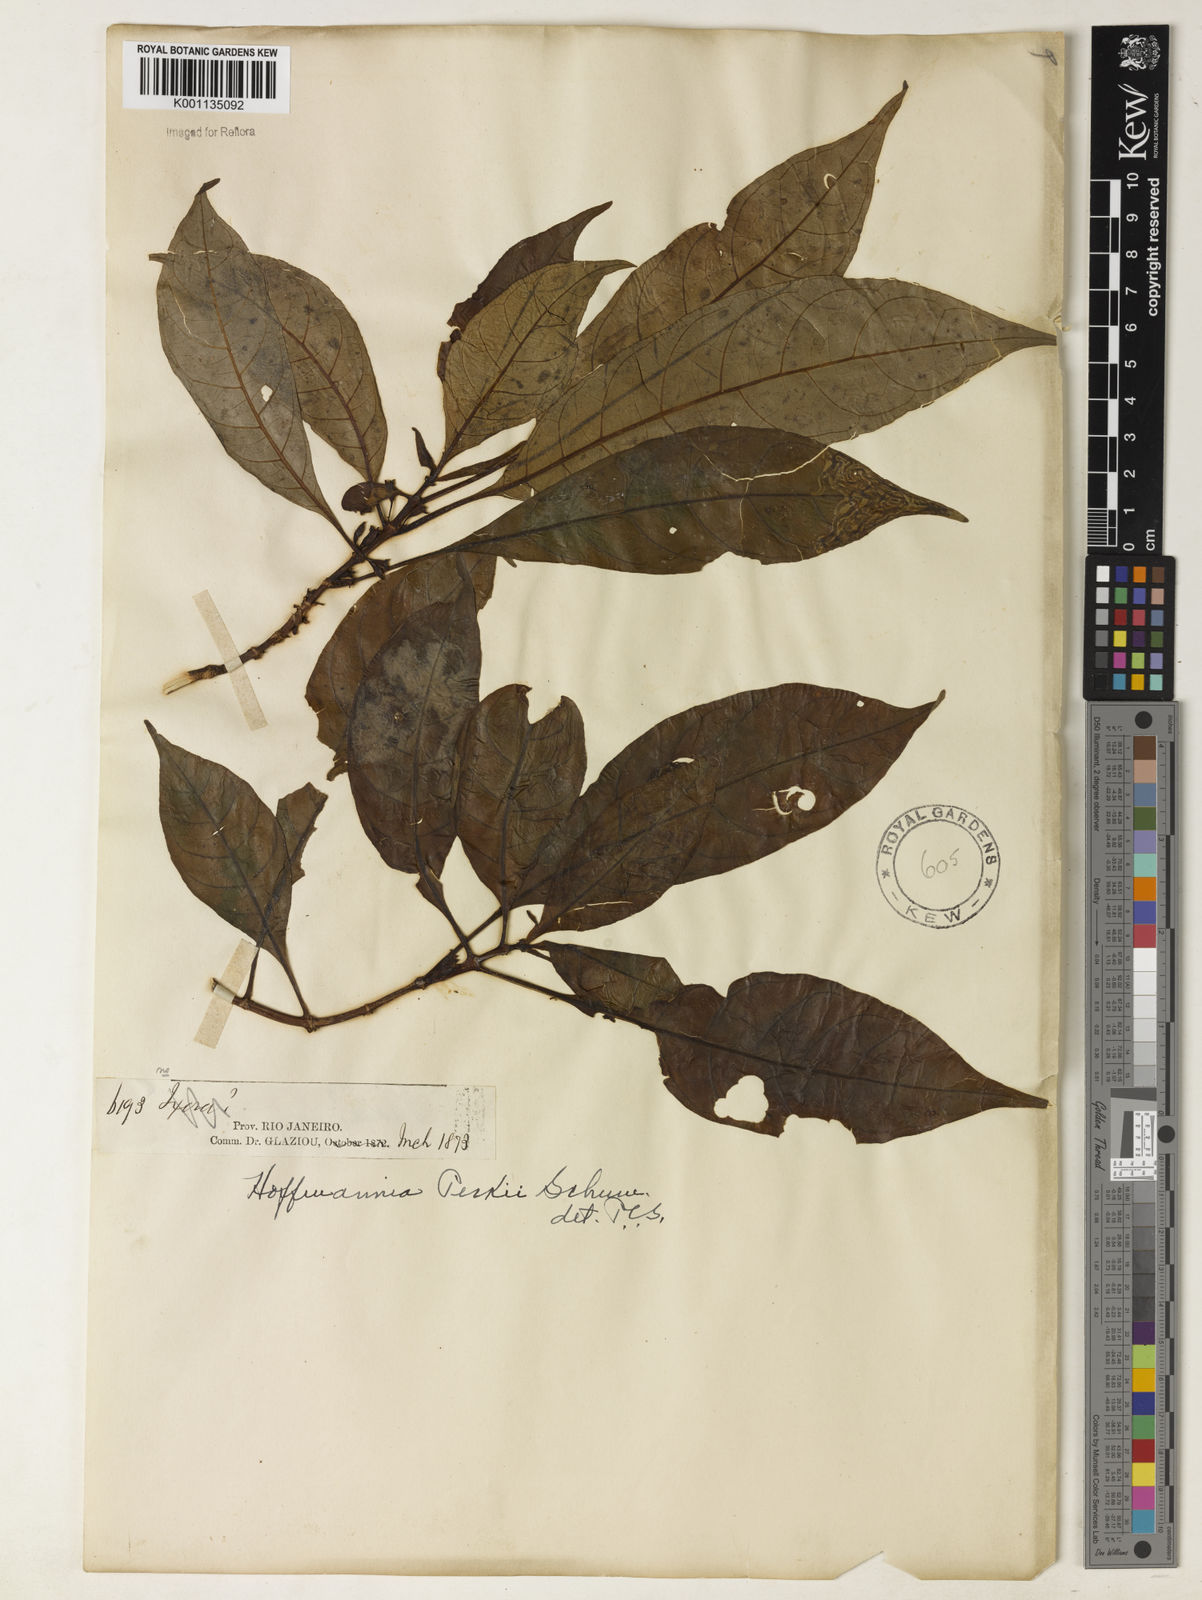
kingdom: Plantae
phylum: Tracheophyta
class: Magnoliopsida
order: Gentianales
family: Rubiaceae
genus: Hoffmannia
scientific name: Hoffmannia peckii
